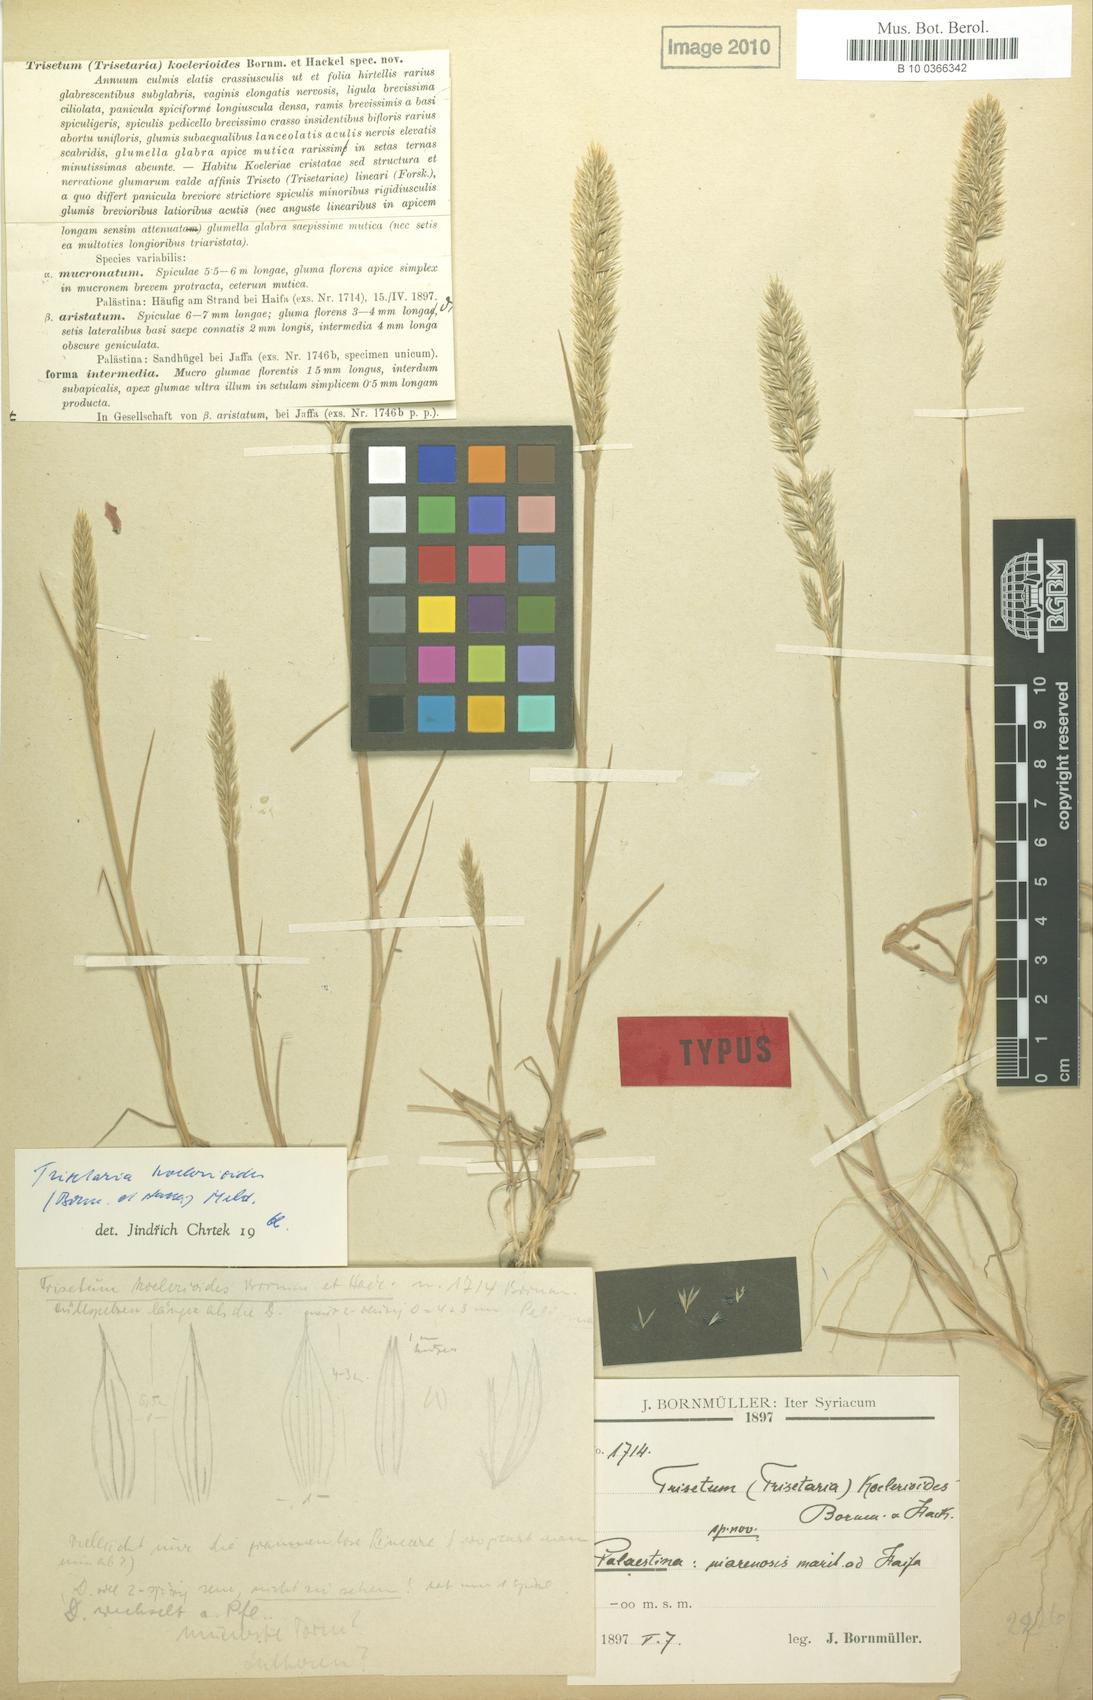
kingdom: Plantae
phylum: Tracheophyta
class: Liliopsida
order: Poales
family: Poaceae
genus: Trisetaria
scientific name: Trisetaria koelerioides
